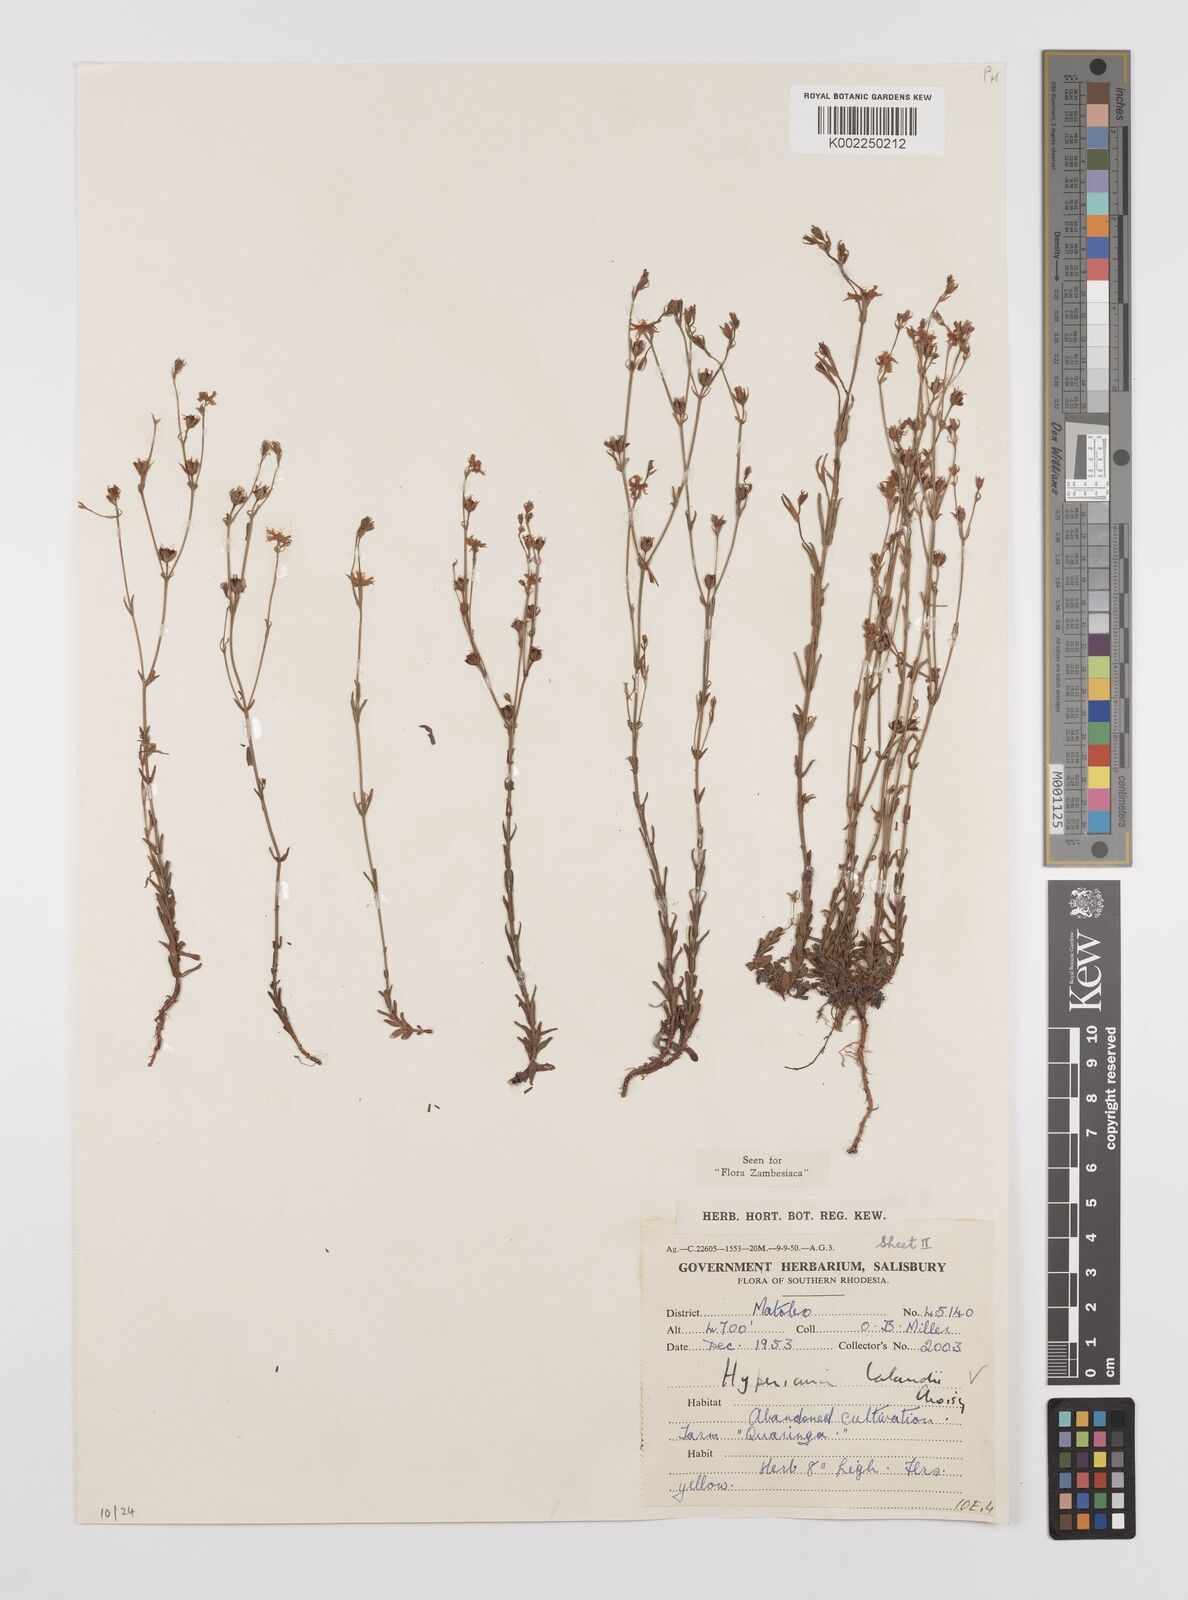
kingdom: Plantae
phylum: Tracheophyta
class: Magnoliopsida
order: Malpighiales
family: Hypericaceae
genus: Hypericum
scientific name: Hypericum lalandii
